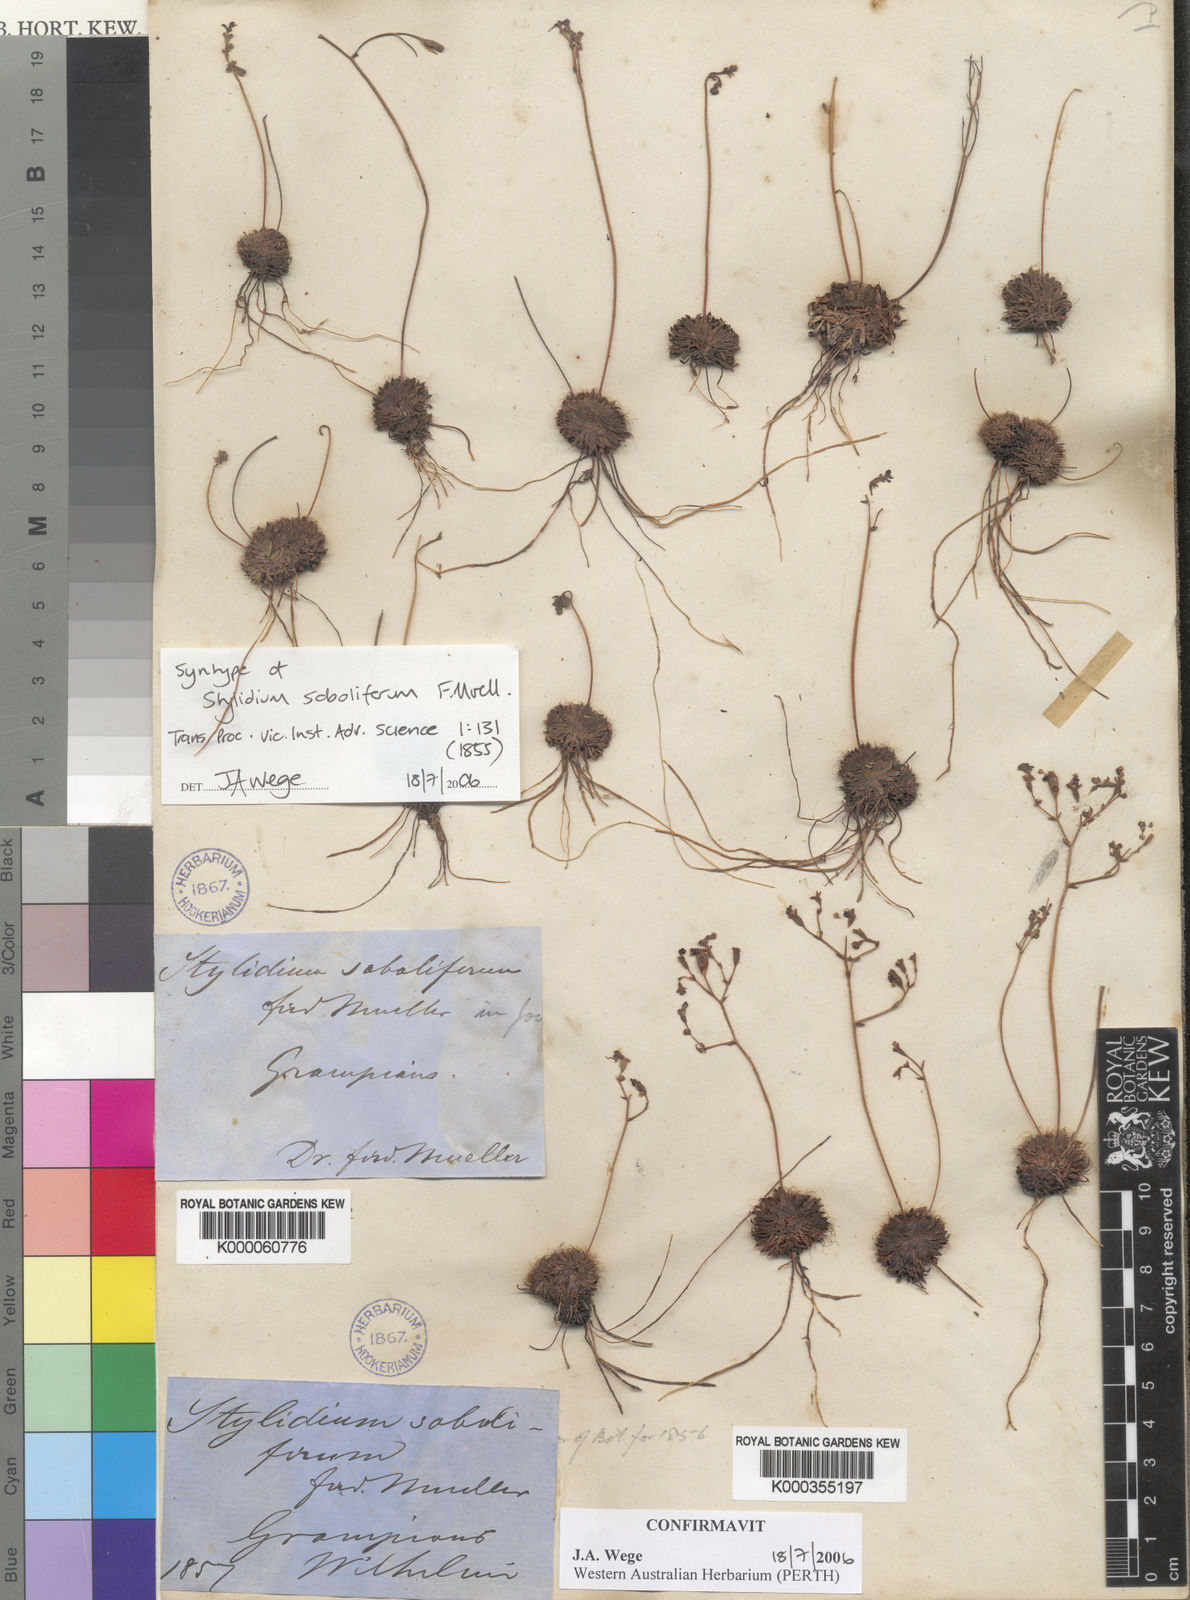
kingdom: Plantae
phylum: Tracheophyta
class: Magnoliopsida
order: Asterales
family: Stylidiaceae
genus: Stylidium
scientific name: Stylidium soboliferum
